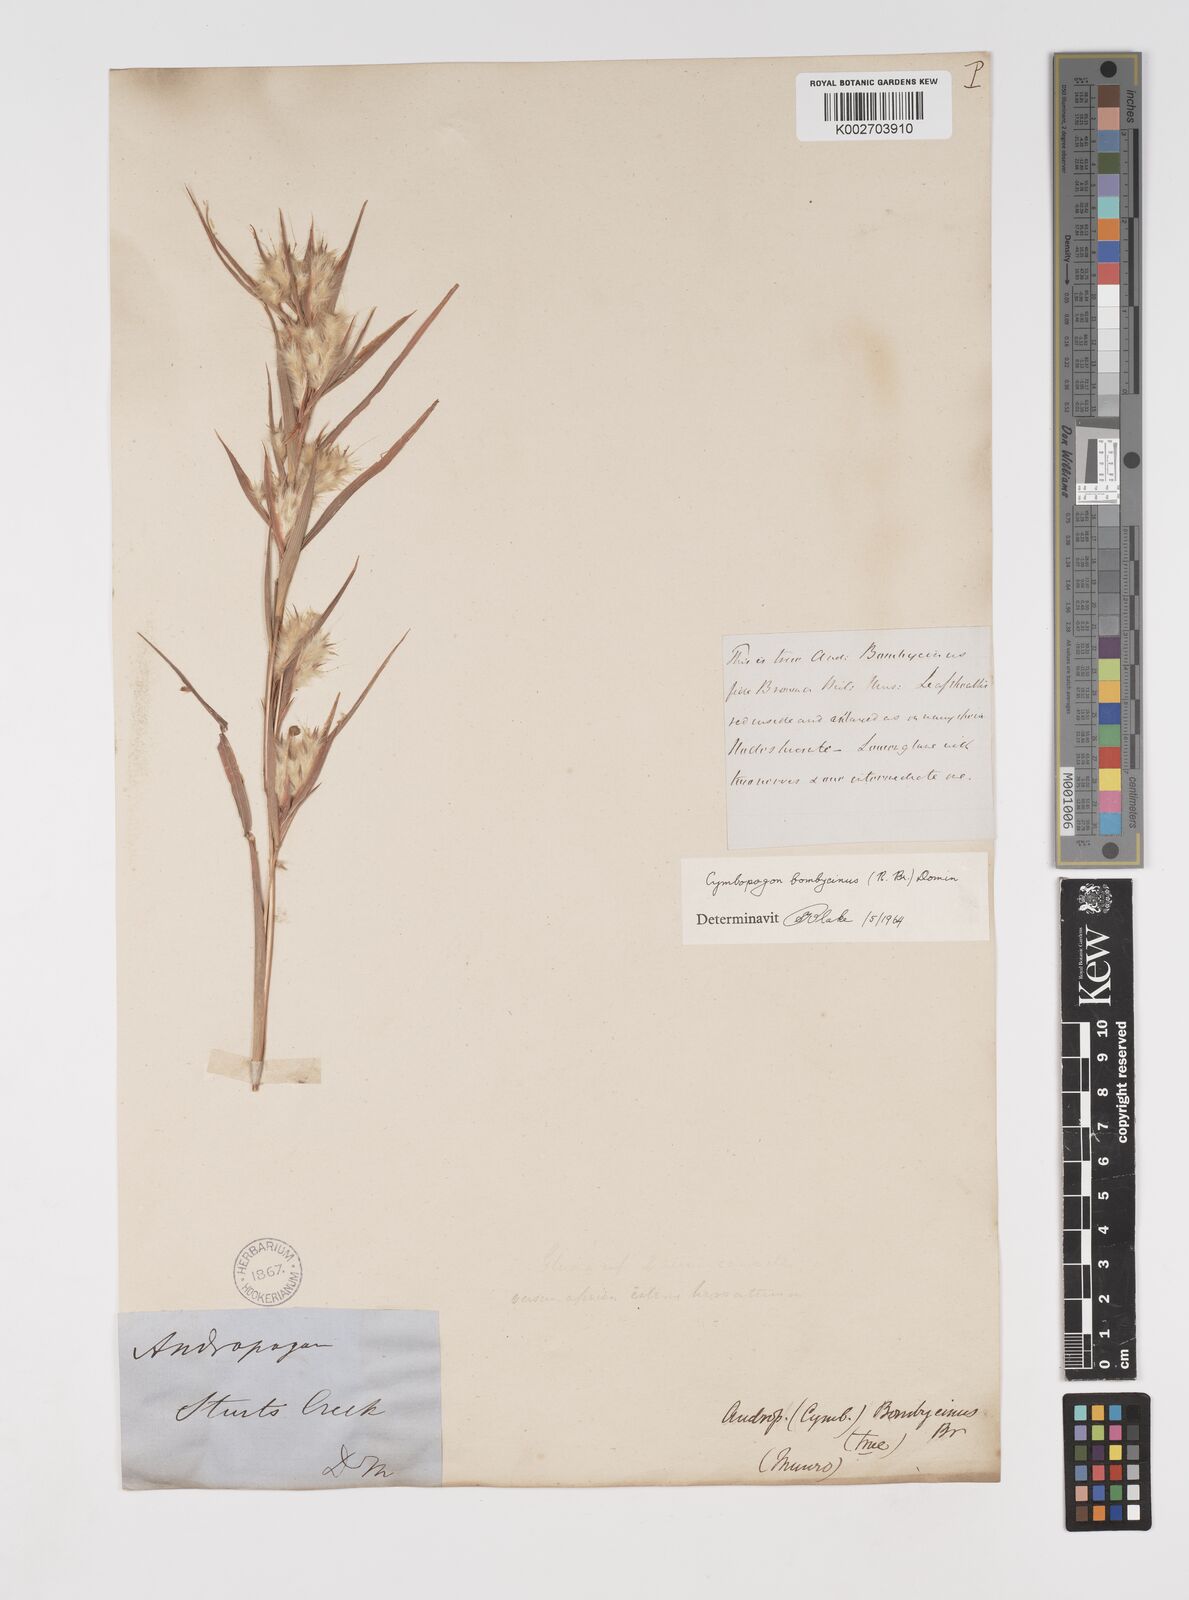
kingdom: Plantae
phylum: Tracheophyta
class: Liliopsida
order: Poales
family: Poaceae
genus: Cymbopogon
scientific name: Cymbopogon bombycinus
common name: Citronella grass
